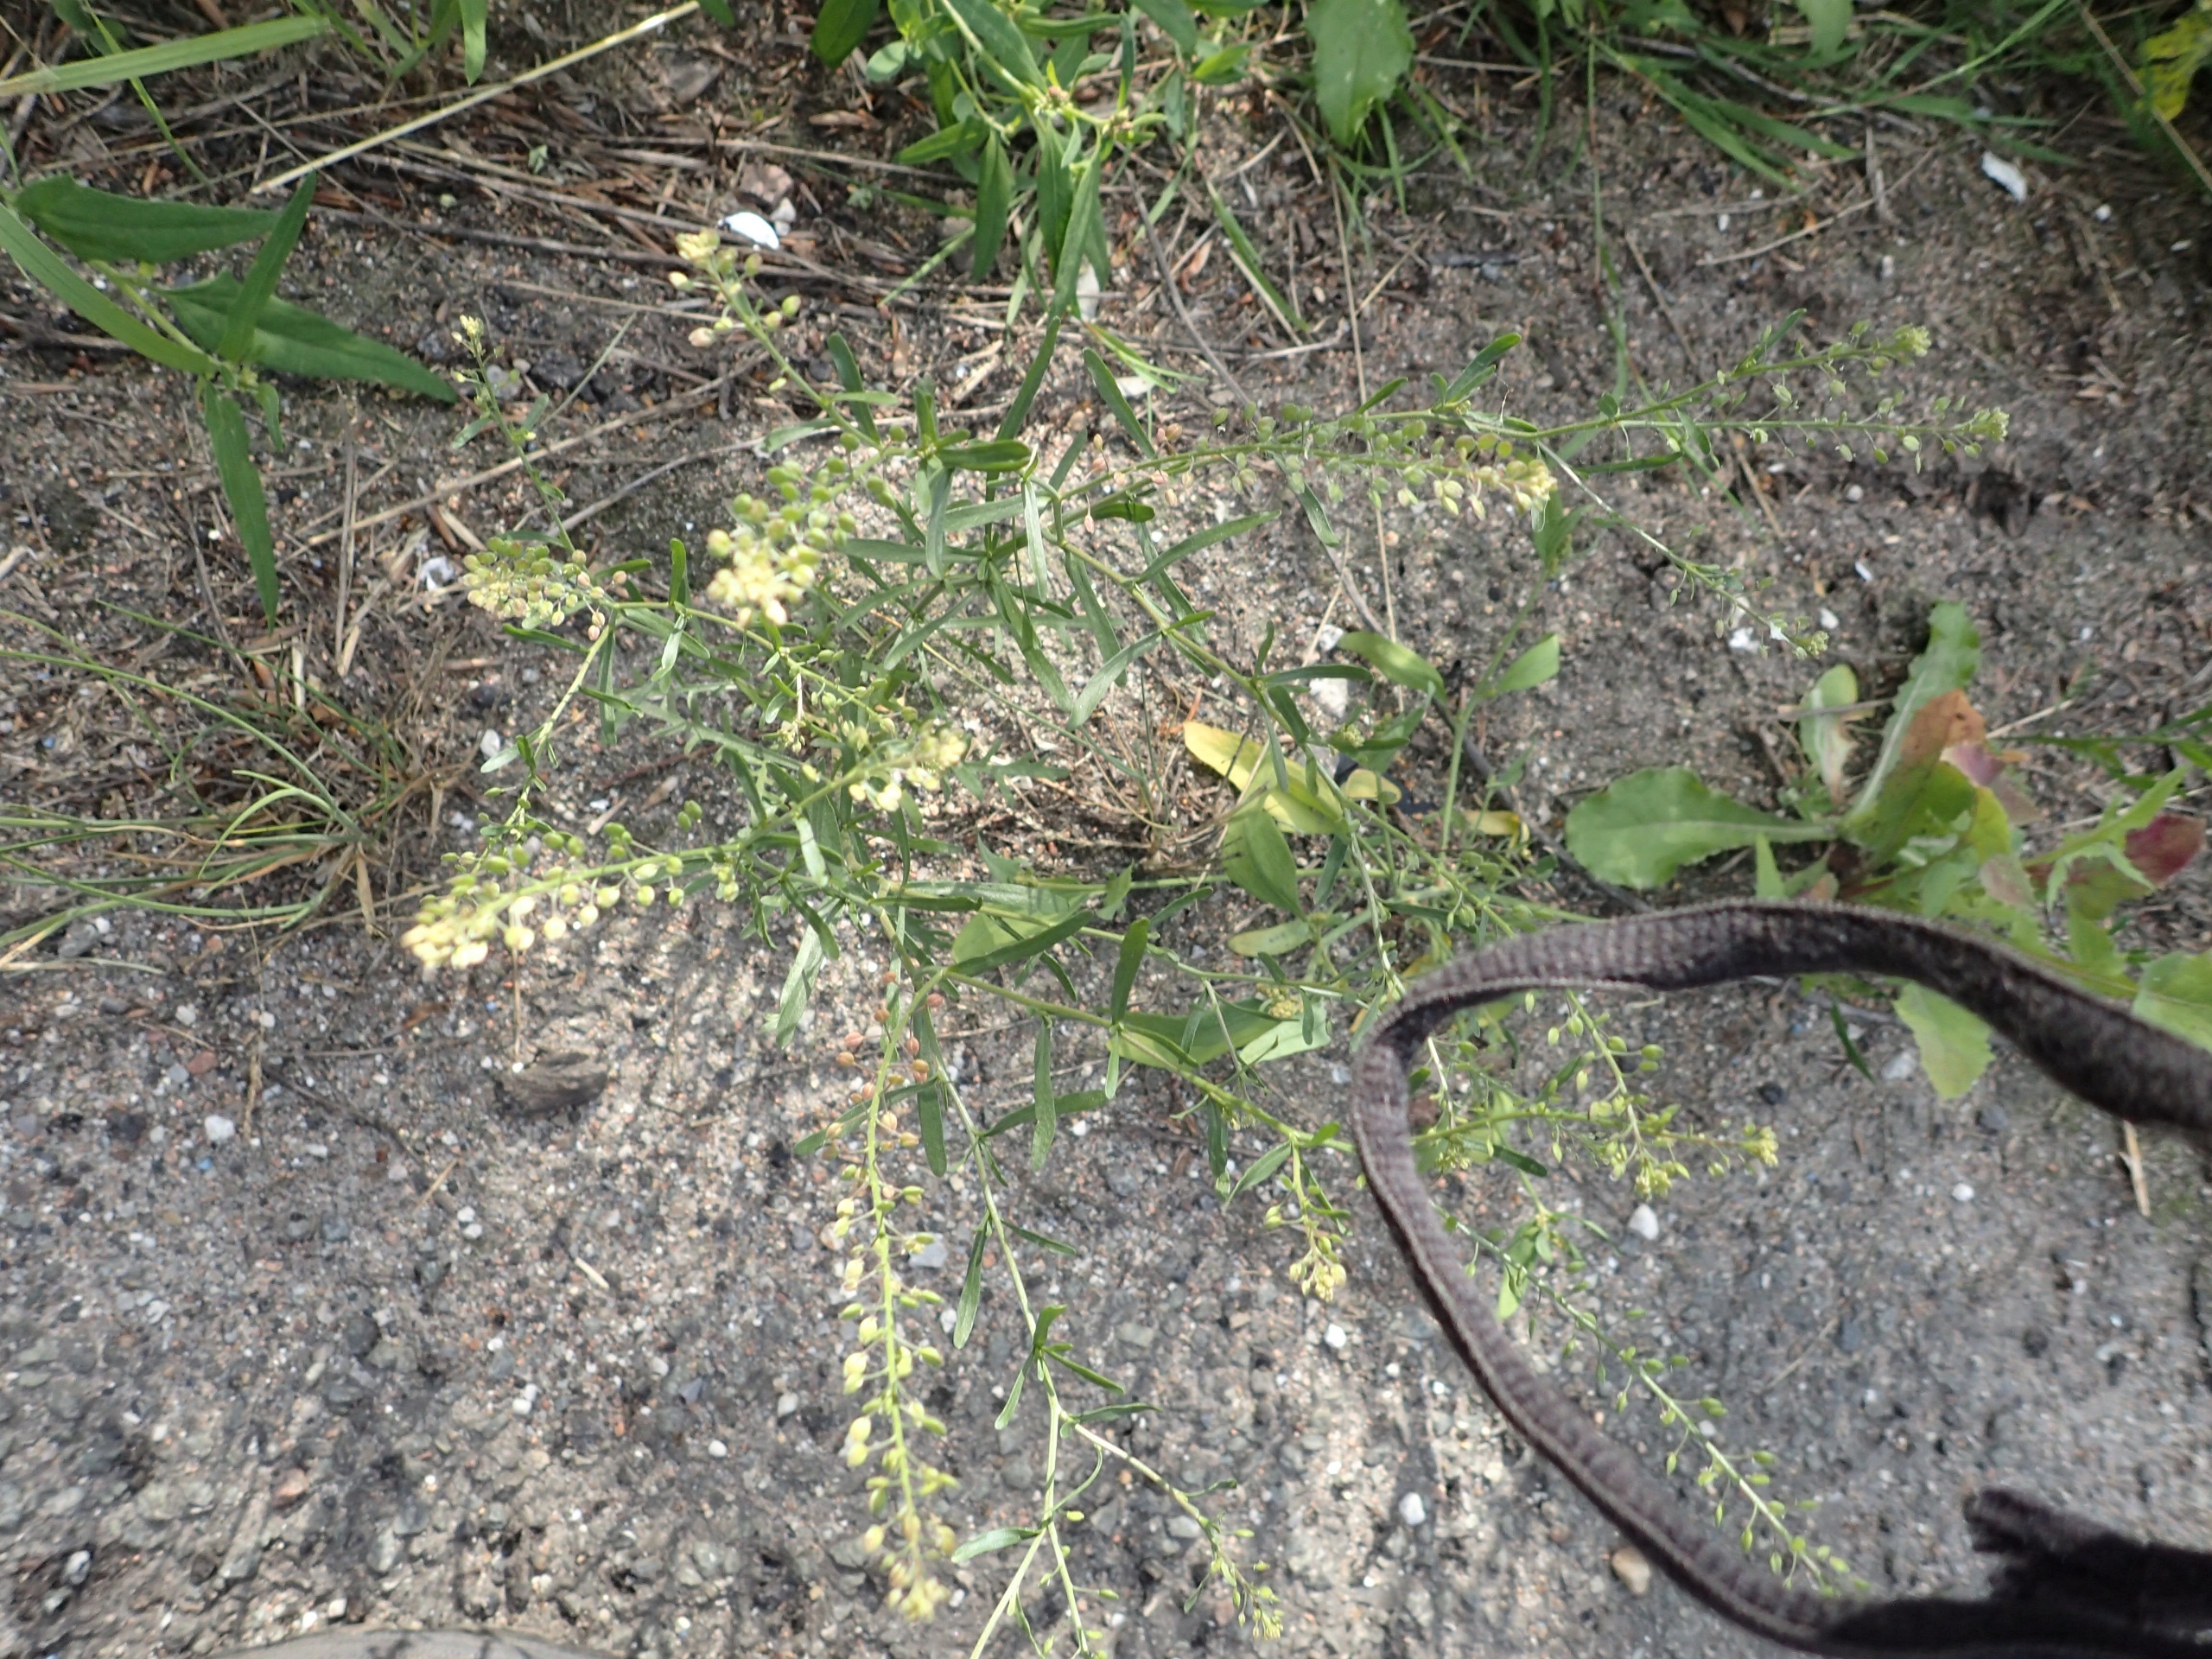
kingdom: Plantae
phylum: Tracheophyta
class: Magnoliopsida
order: Brassicales
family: Brassicaceae
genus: Lepidium
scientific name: Lepidium ruderale
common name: Stinkende karse
